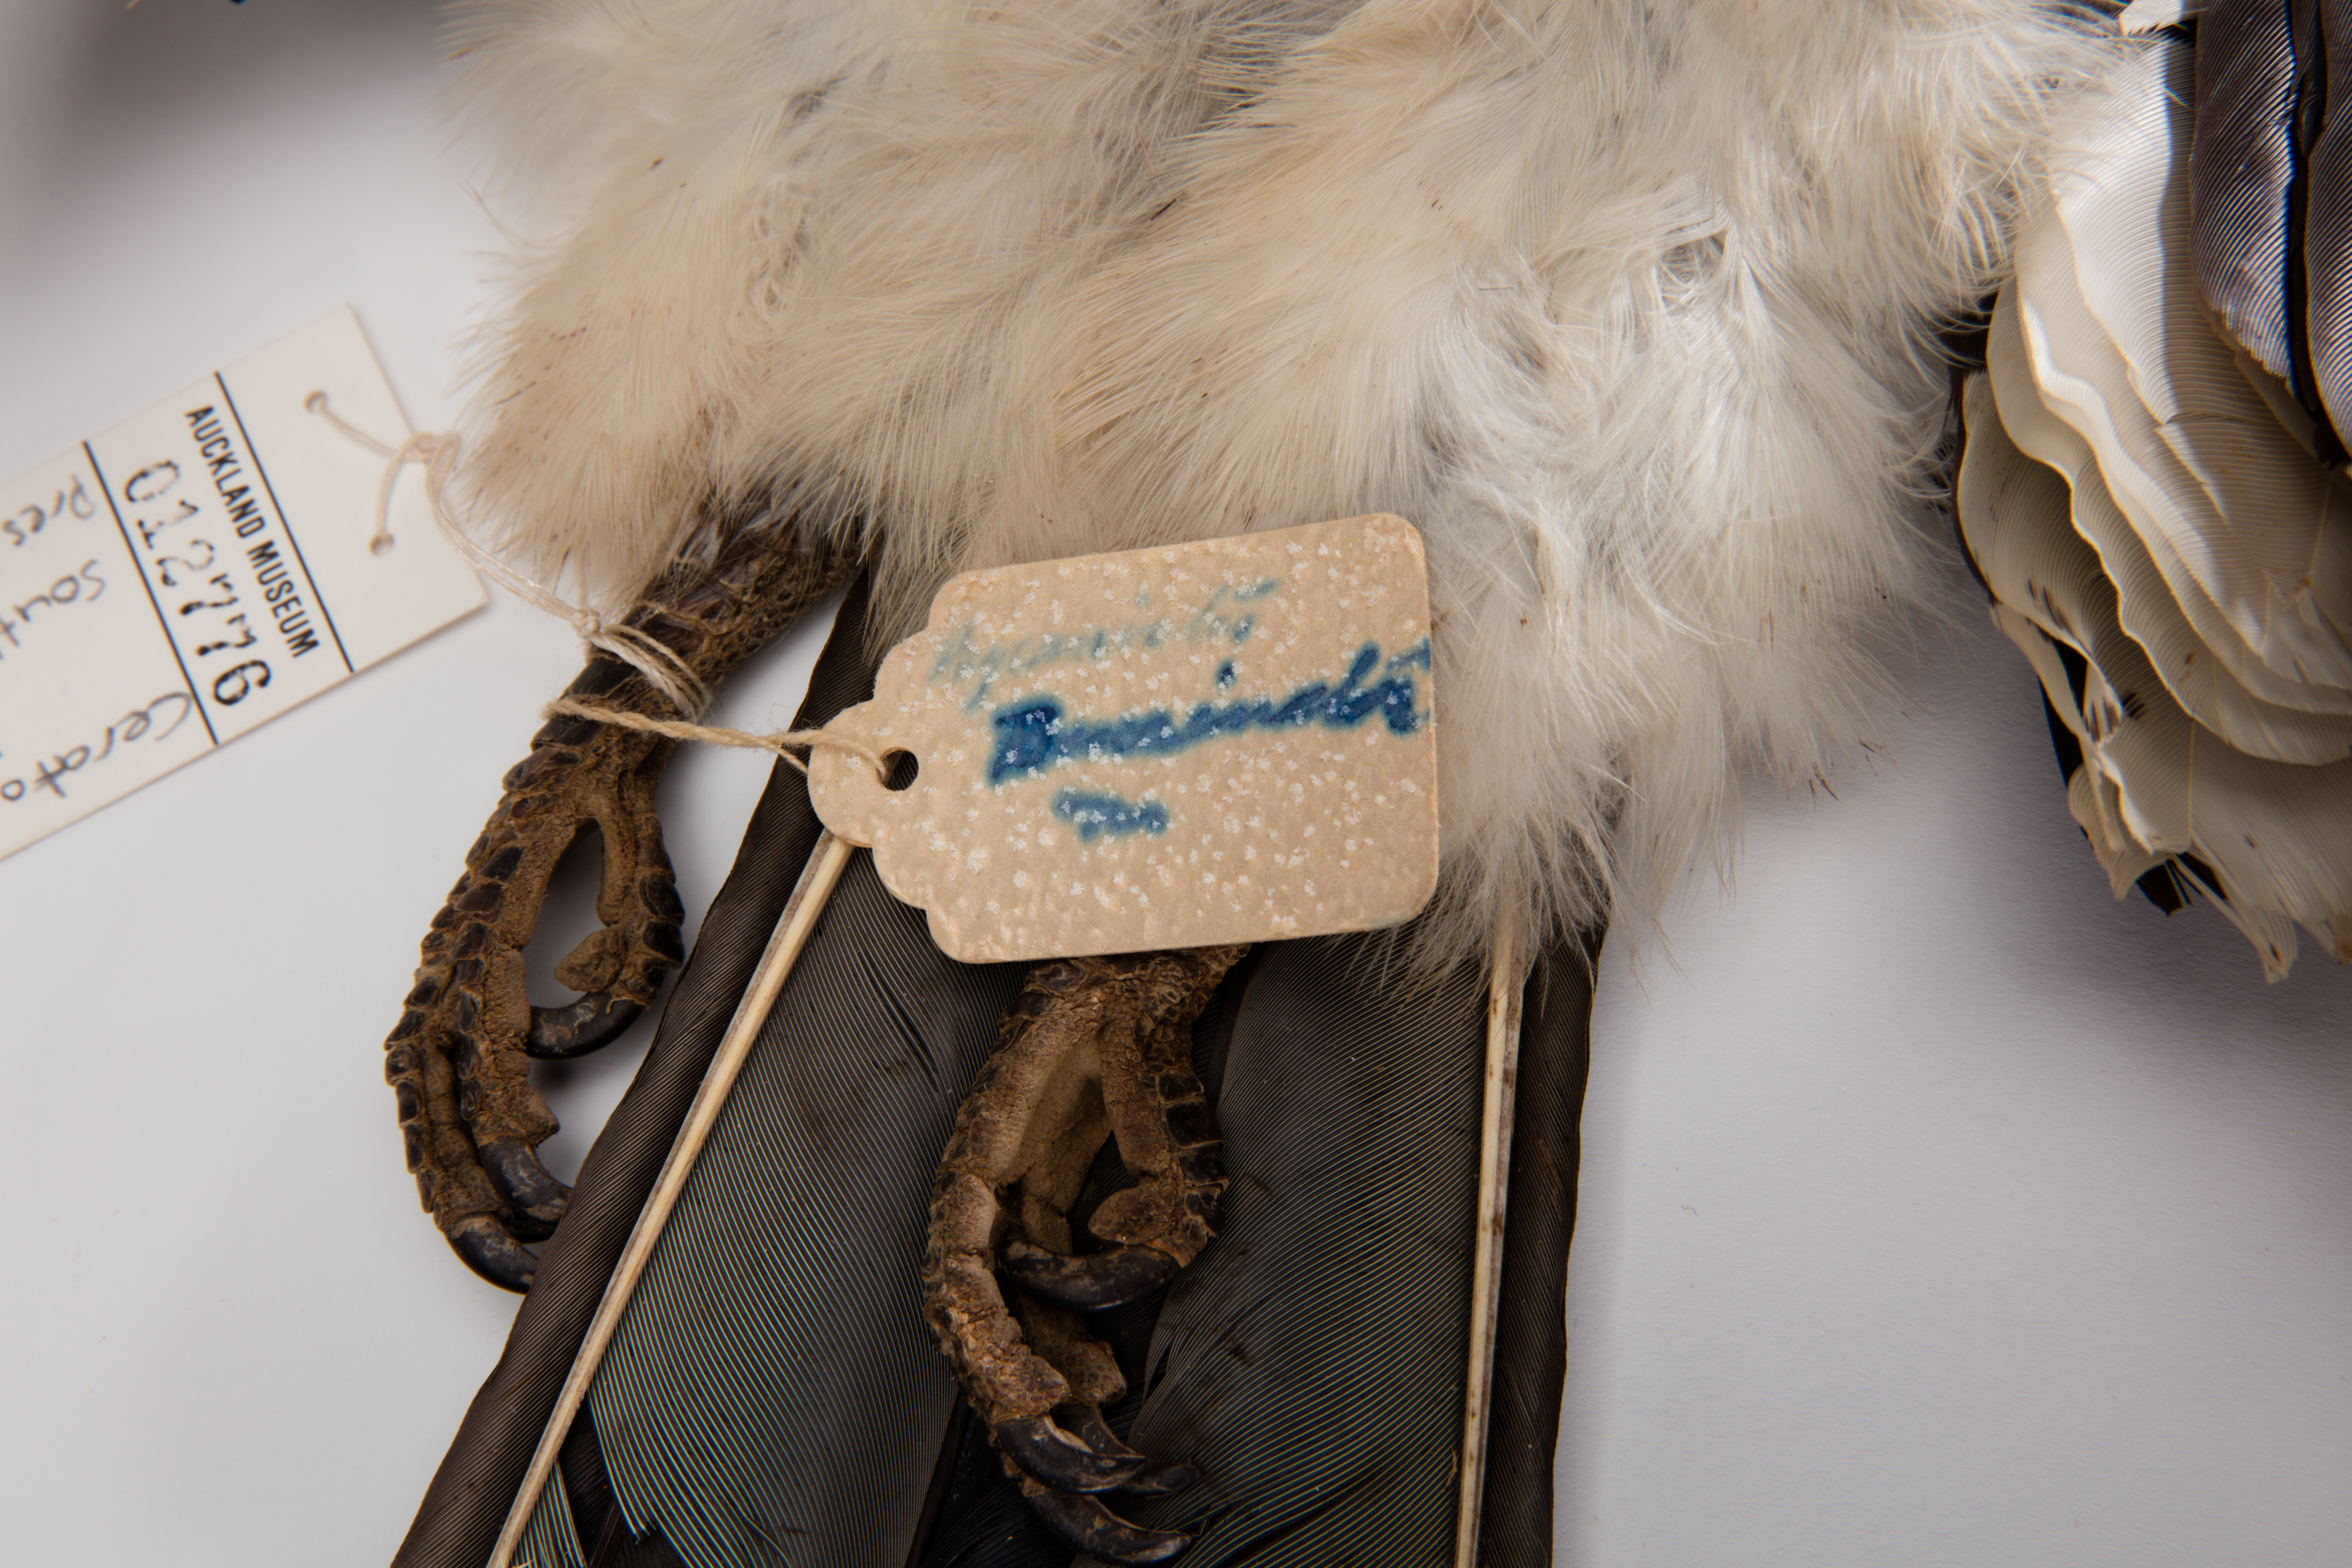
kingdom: Animalia
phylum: Chordata
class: Aves
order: Bucerotiformes
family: Bucerotidae
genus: Bycanistes
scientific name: Bycanistes bucinator
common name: Trumpeter hornbill
